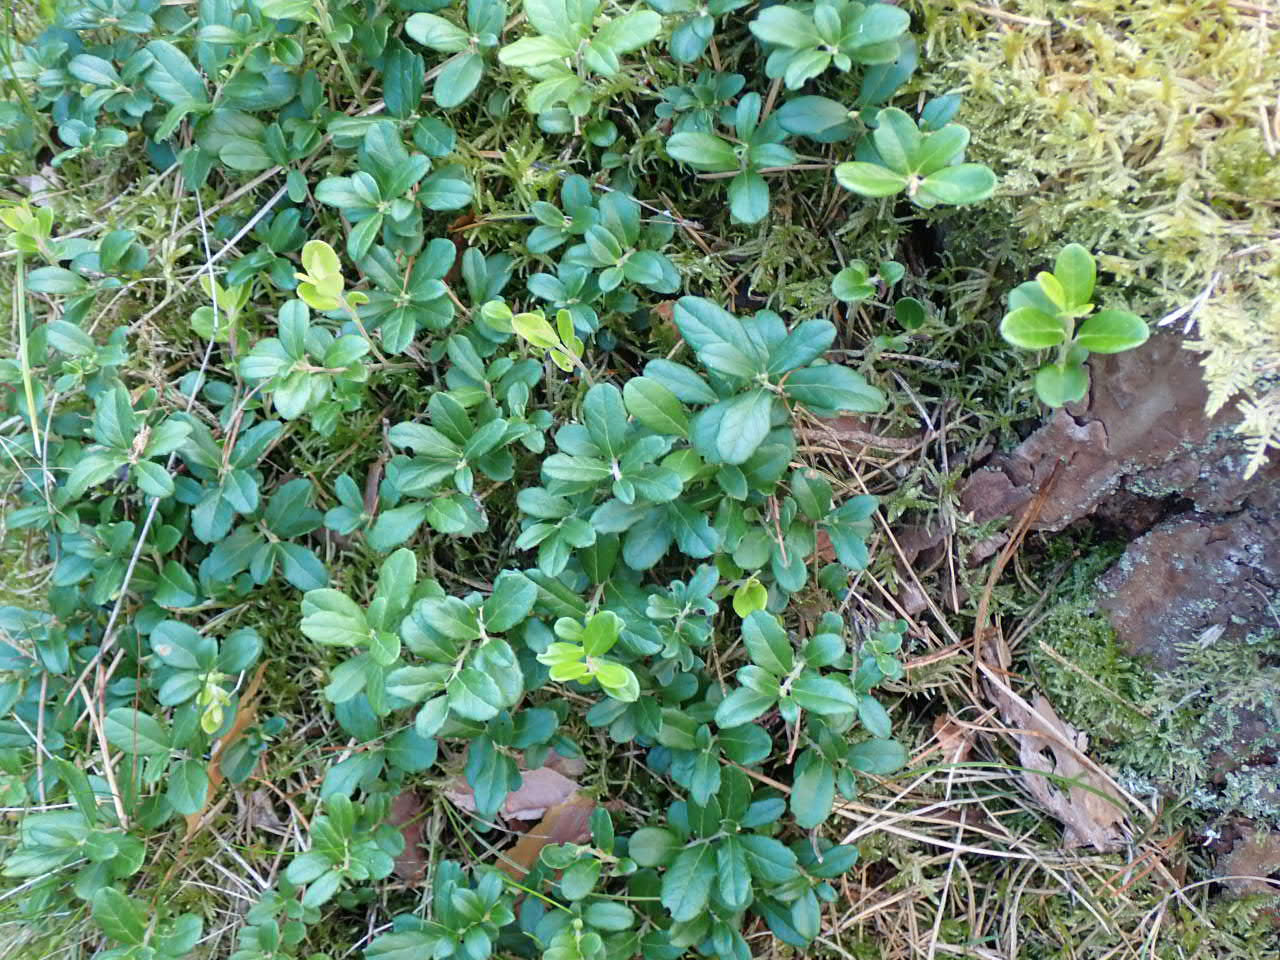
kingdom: Plantae
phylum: Tracheophyta
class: Magnoliopsida
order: Ericales
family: Ericaceae
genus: Vaccinium
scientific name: Vaccinium vitis-idaea
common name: Tyttebær
